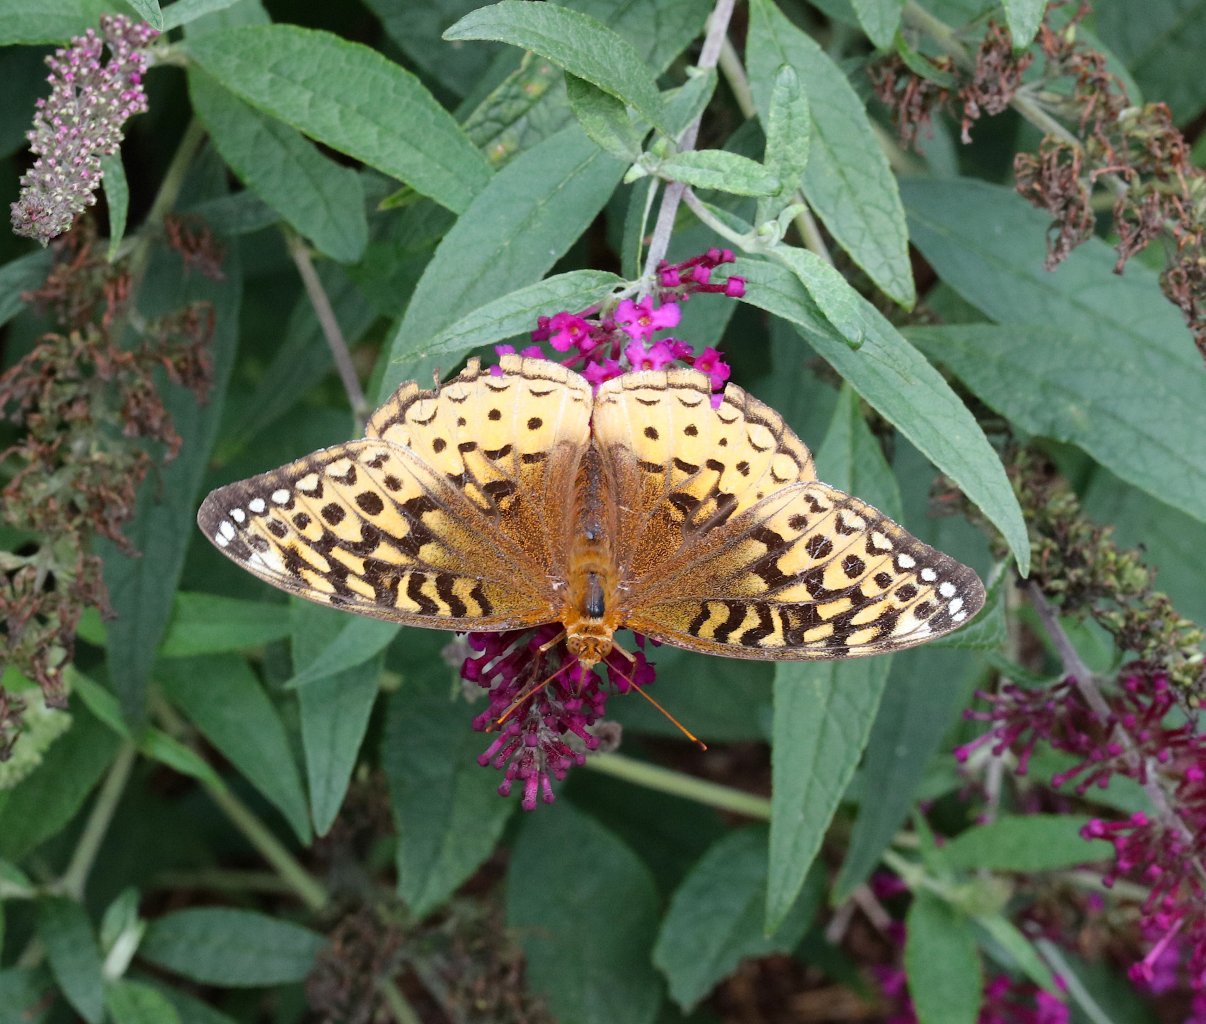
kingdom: Animalia
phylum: Arthropoda
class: Insecta
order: Lepidoptera
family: Nymphalidae
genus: Speyeria
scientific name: Speyeria cybele
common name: Great Spangled Fritillary
